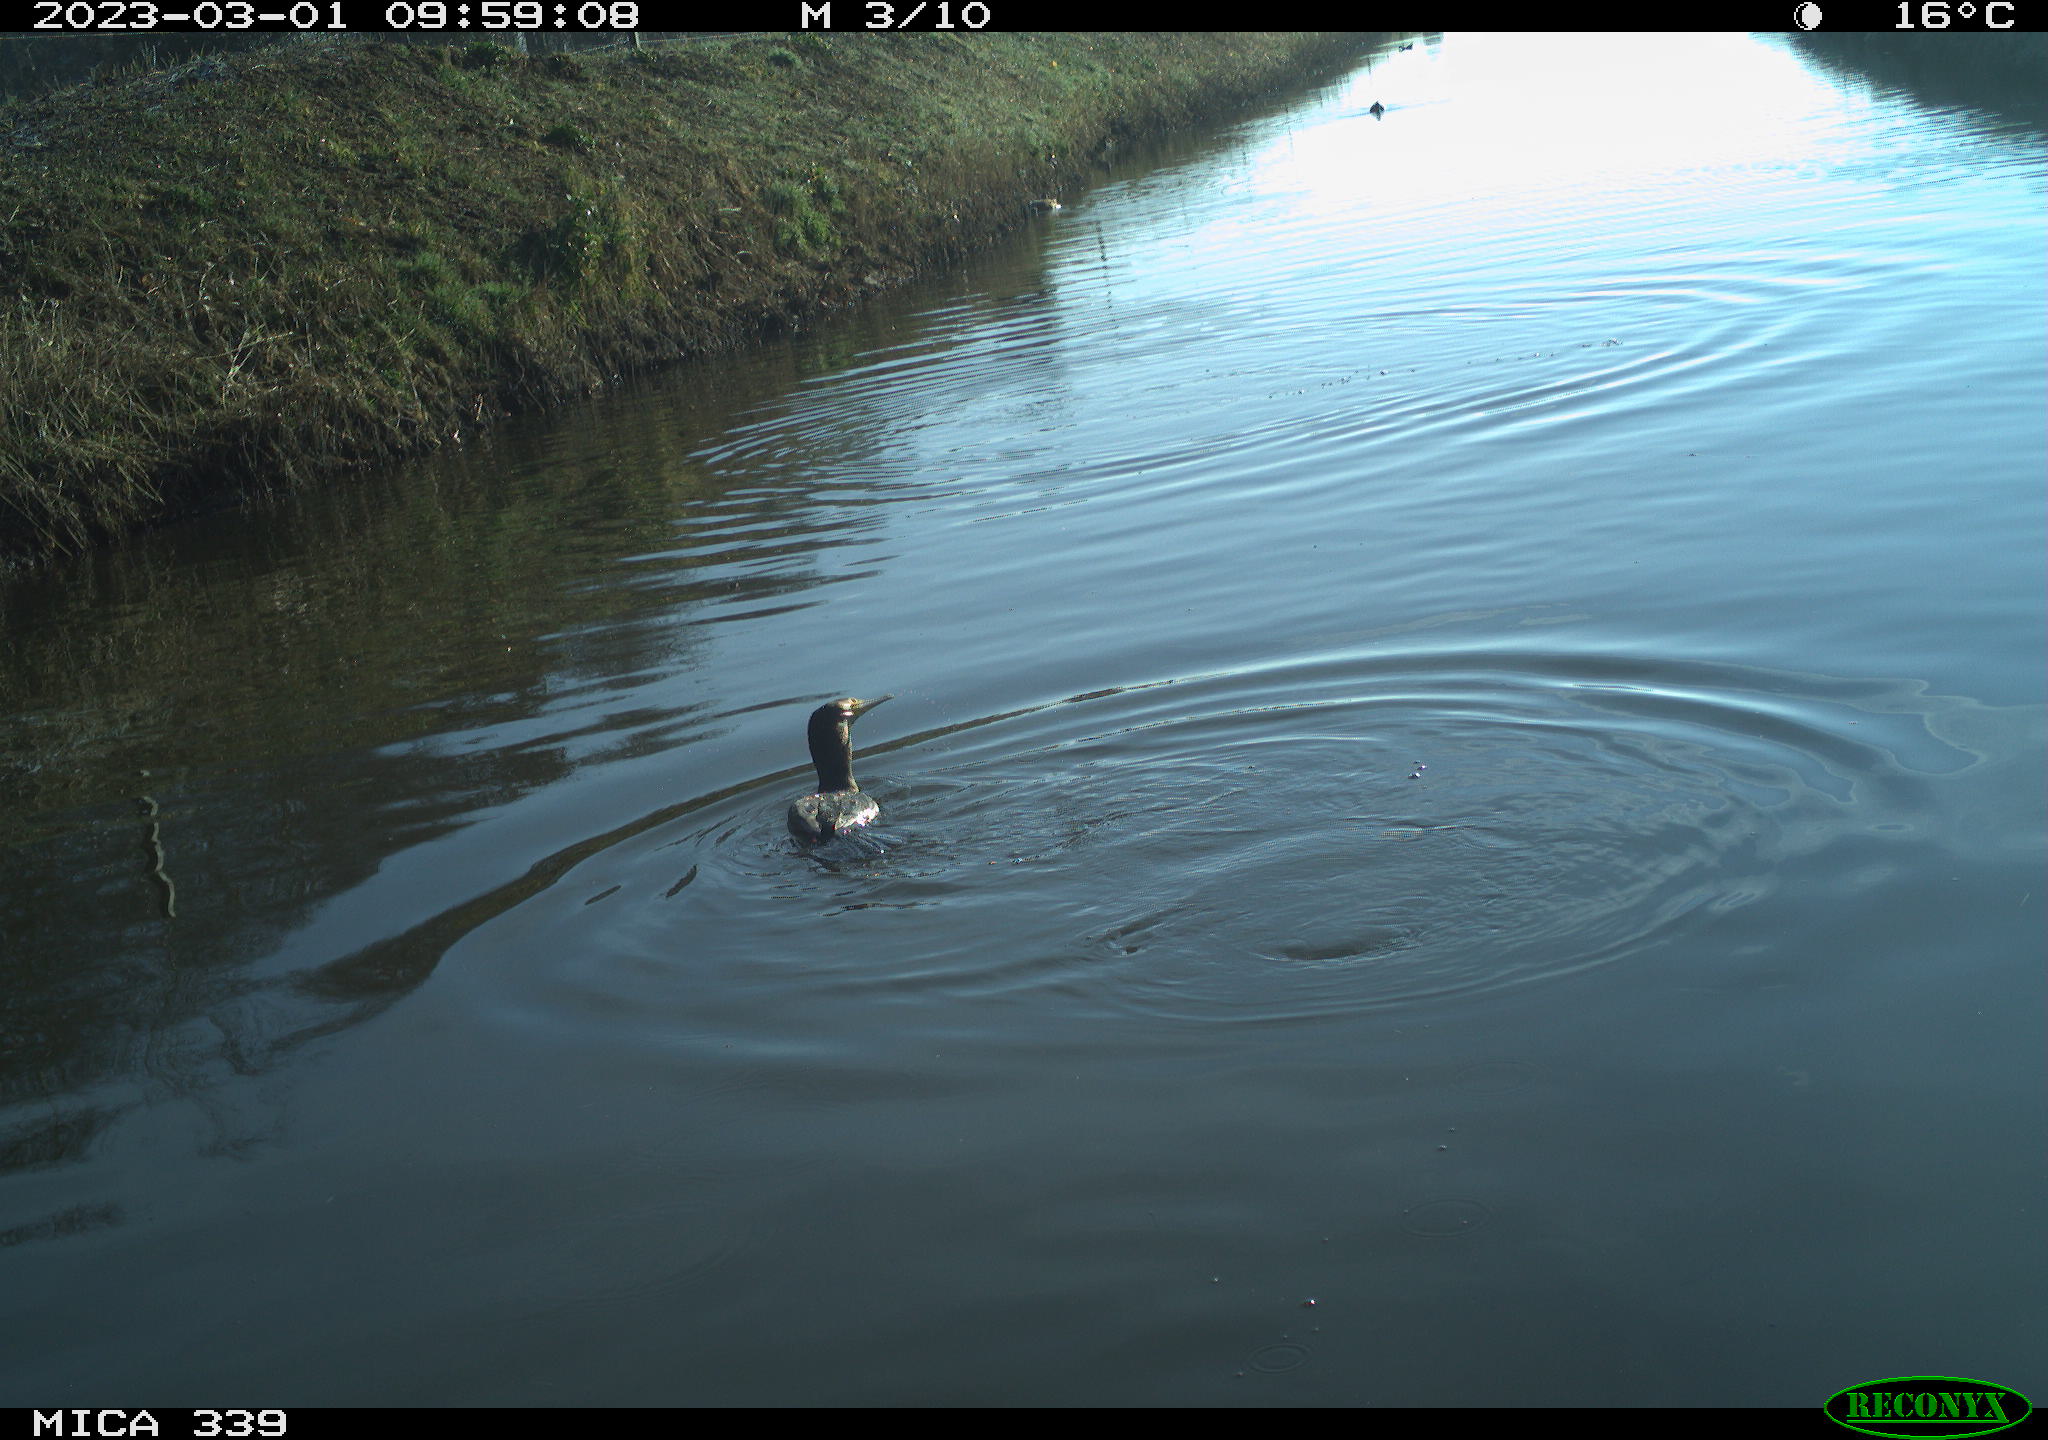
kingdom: Animalia
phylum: Chordata
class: Aves
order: Gruiformes
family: Rallidae
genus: Gallinula
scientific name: Gallinula chloropus
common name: Common moorhen
